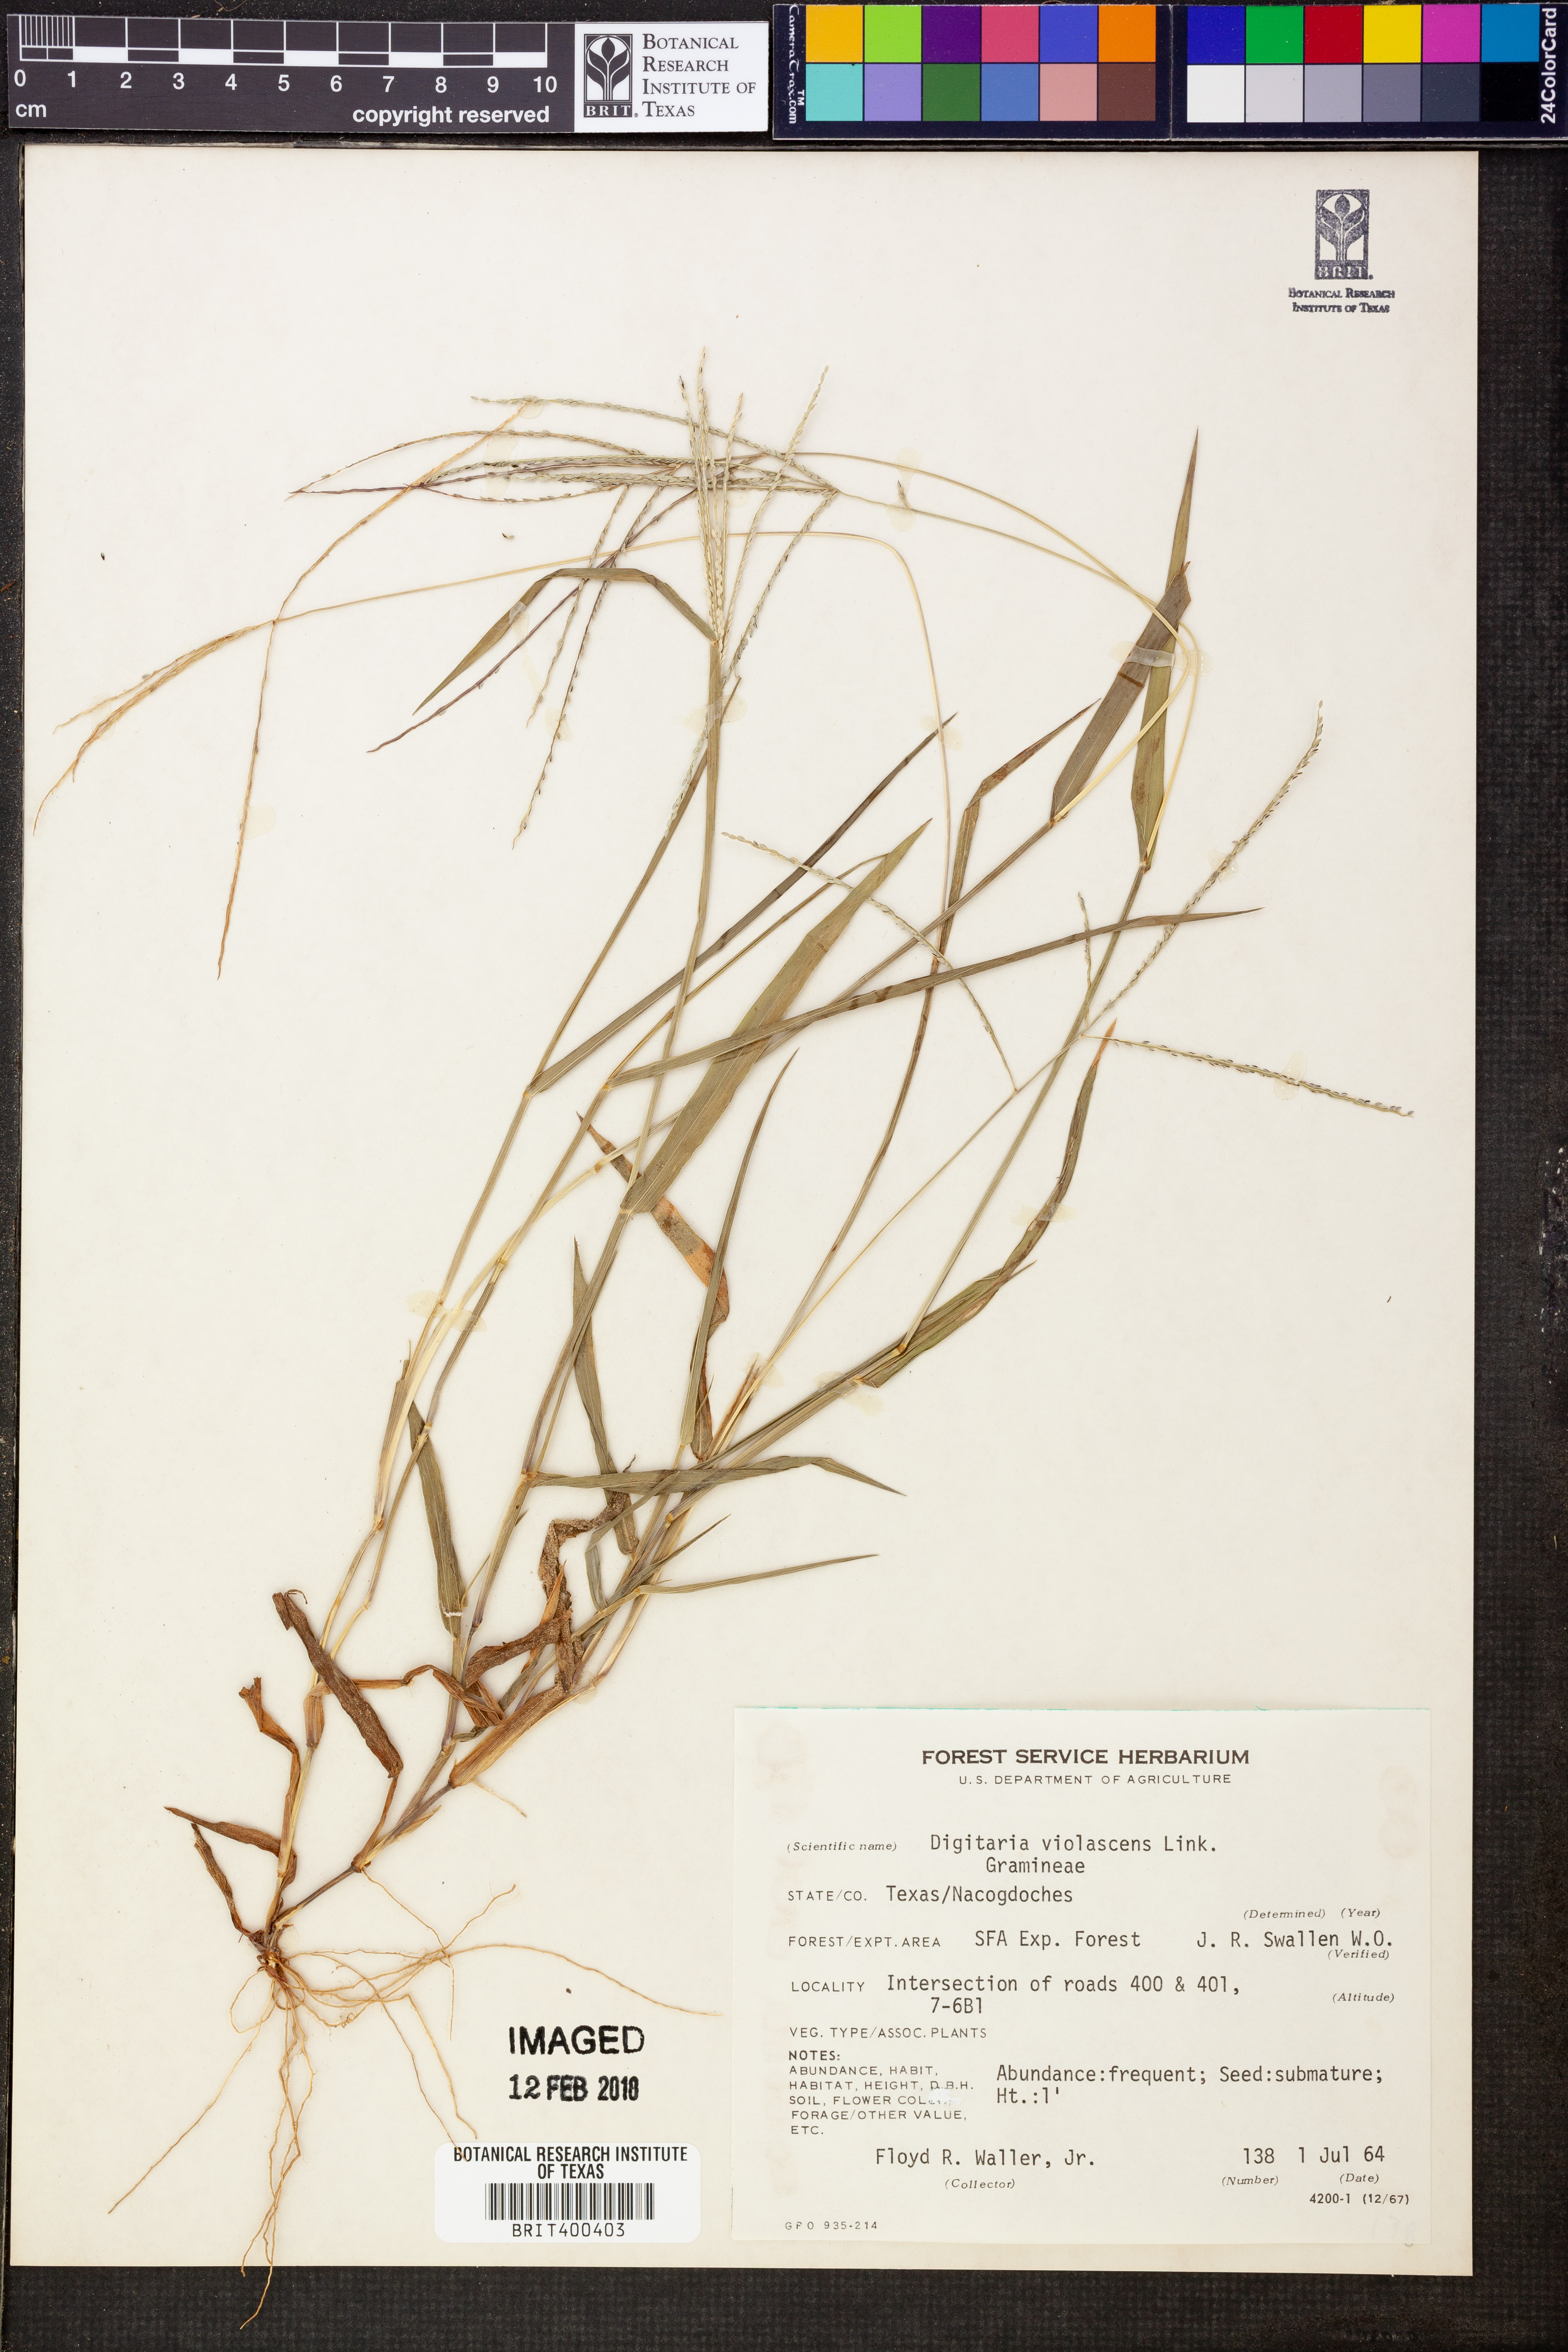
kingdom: Plantae
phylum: Tracheophyta
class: Liliopsida
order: Poales
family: Poaceae
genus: Digitaria
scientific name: Digitaria violascens
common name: Violet crabgrass
